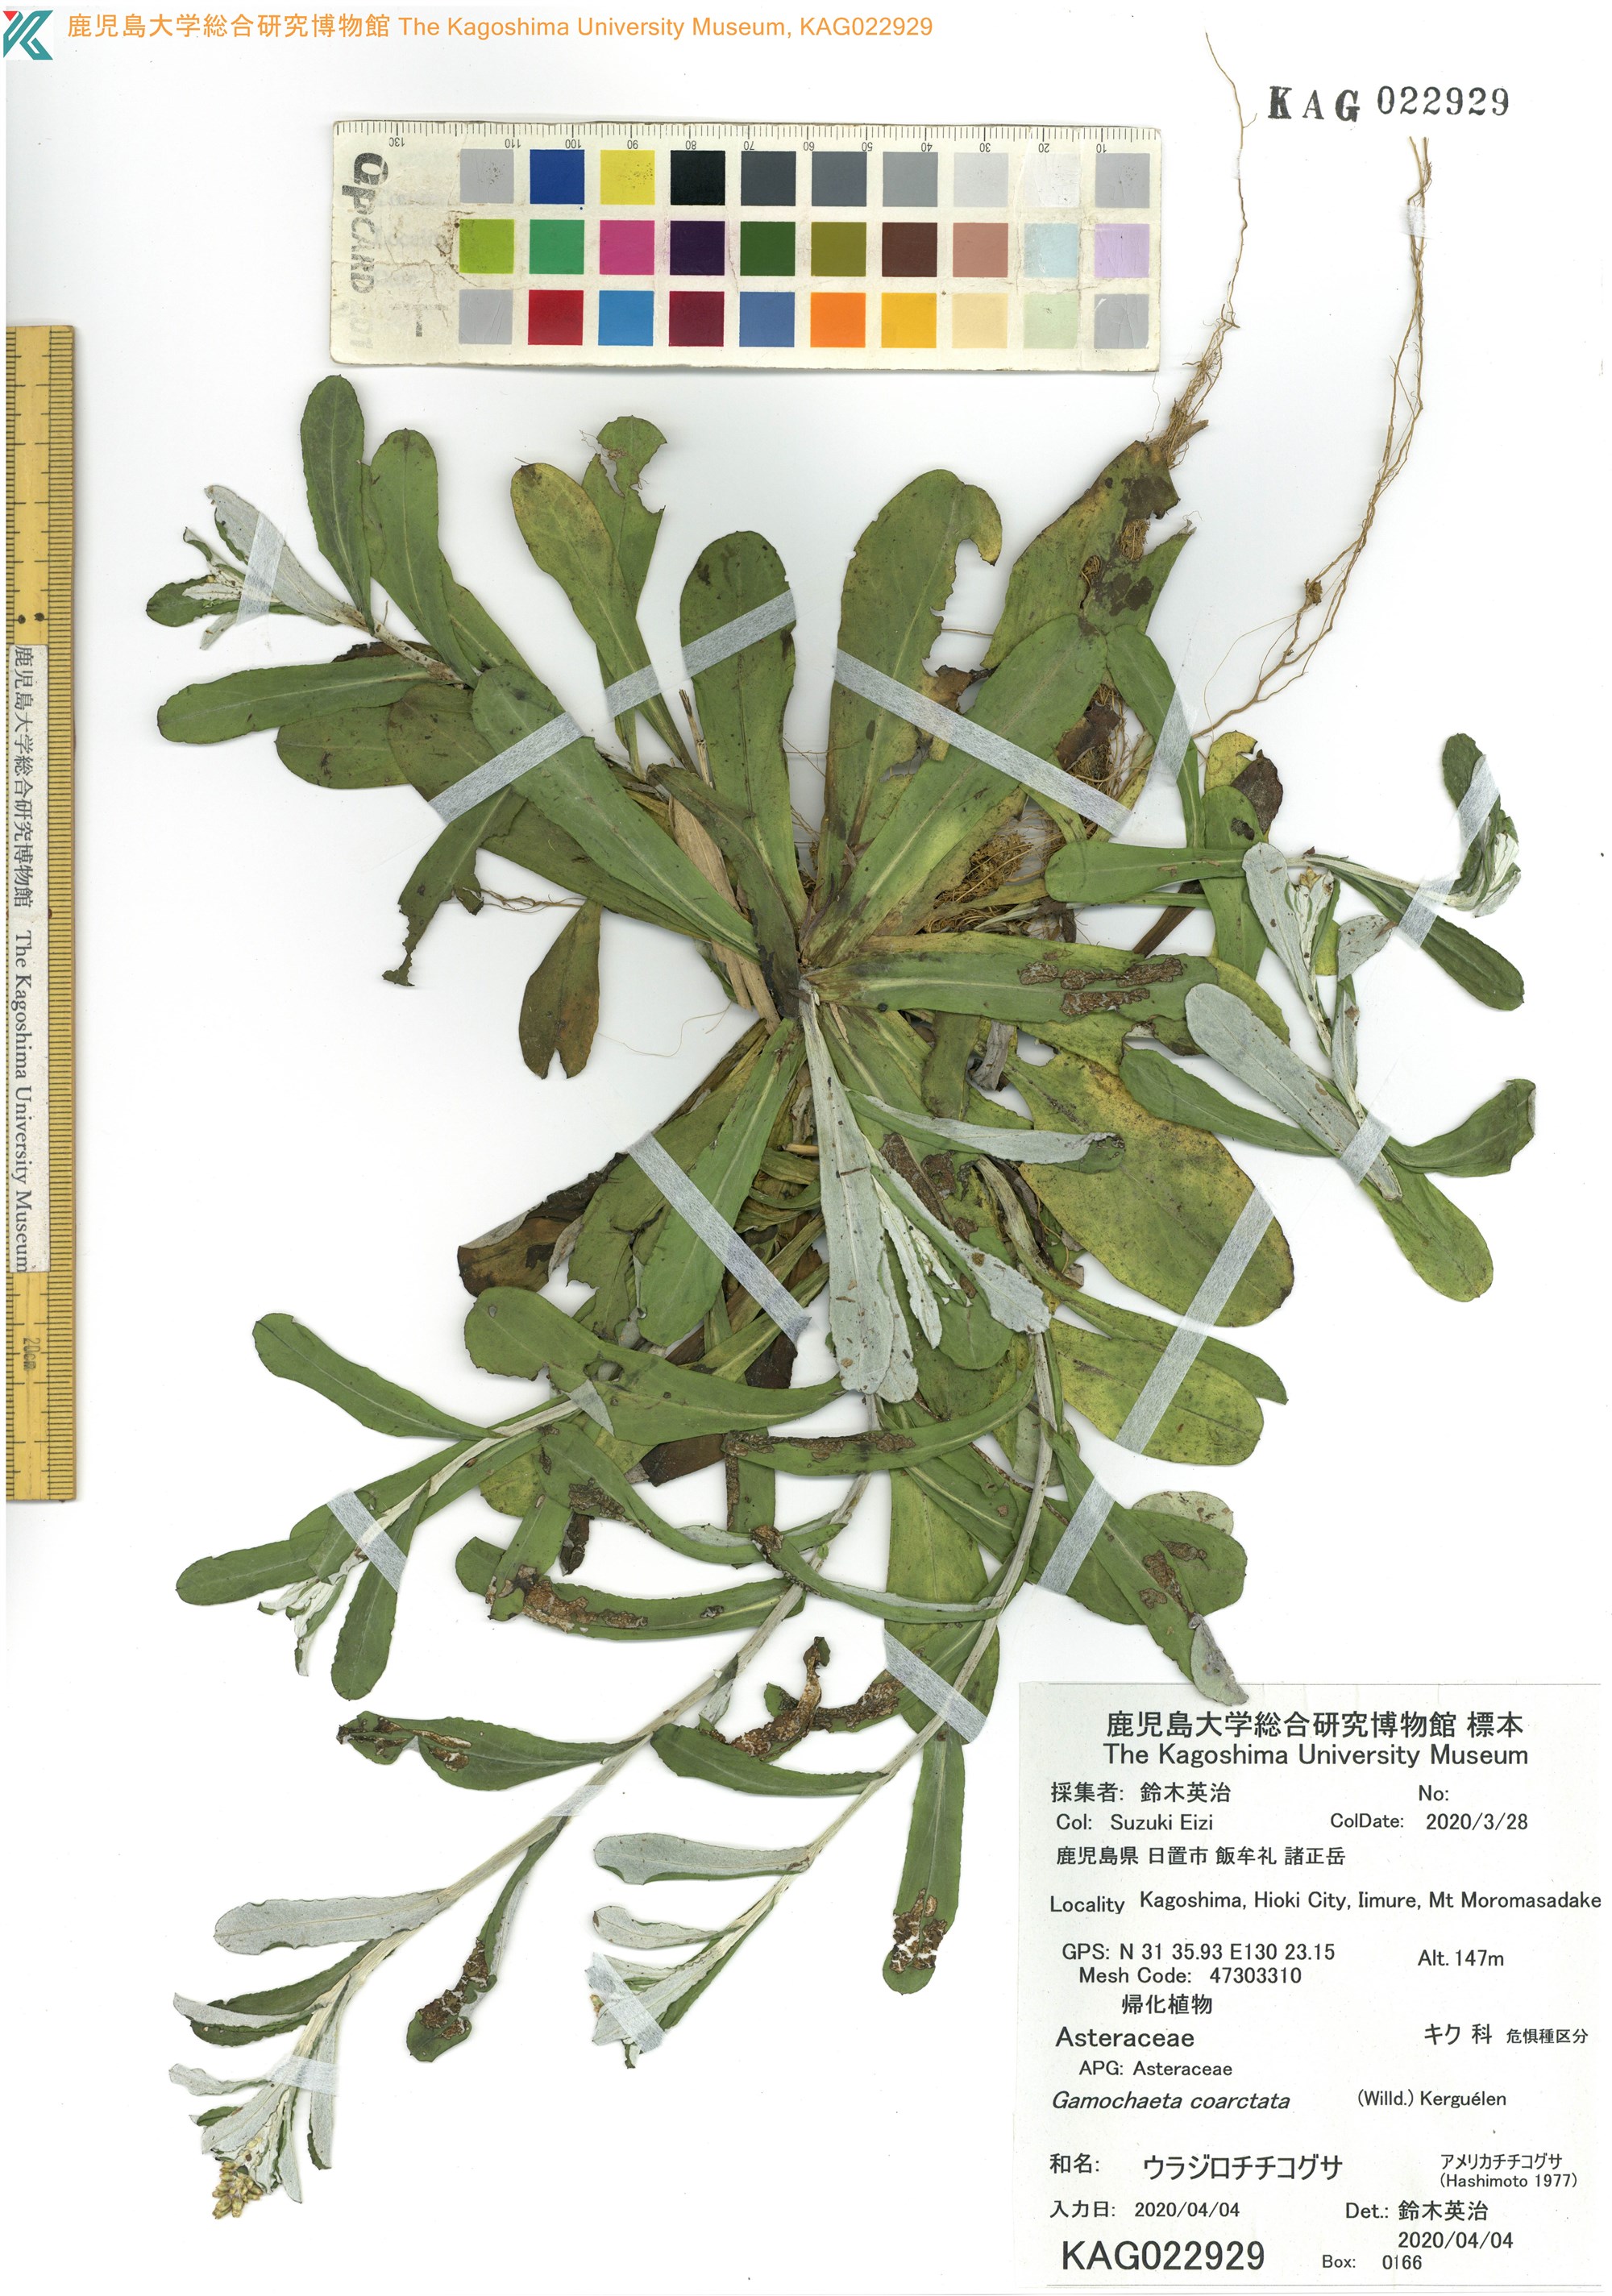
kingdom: Plantae
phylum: Tracheophyta
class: Magnoliopsida
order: Asterales
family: Asteraceae
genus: Gamochaeta
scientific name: Gamochaeta americana
